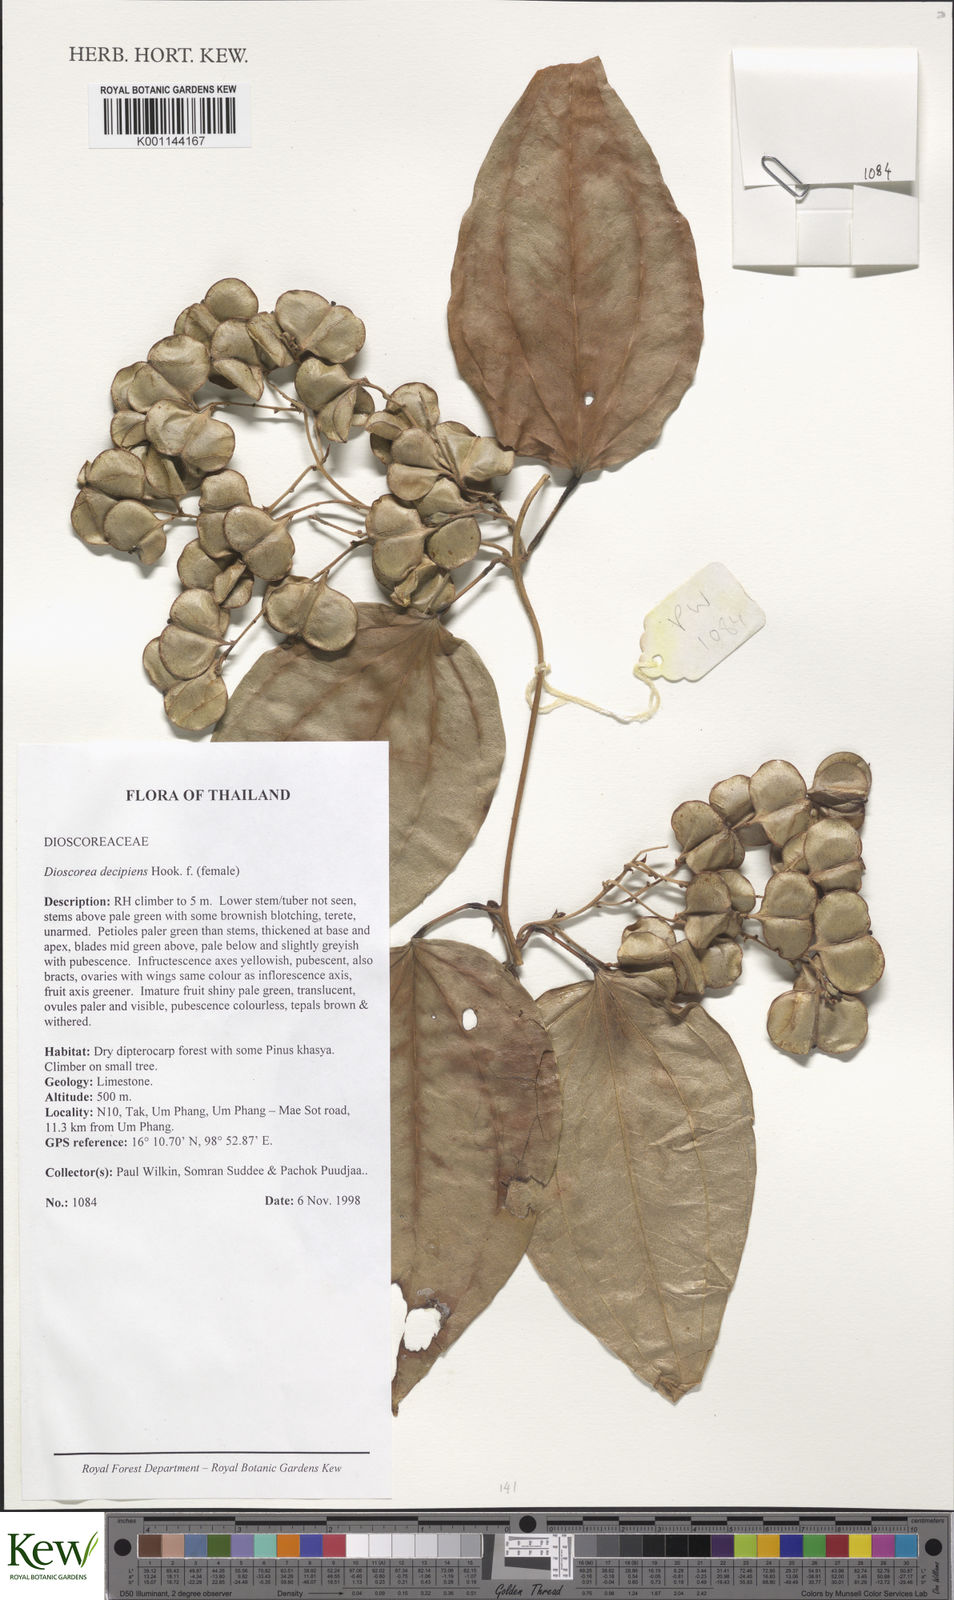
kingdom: Plantae
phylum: Tracheophyta
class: Liliopsida
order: Dioscoreales
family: Dioscoreaceae
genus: Dioscorea
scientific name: Dioscorea decipiens
